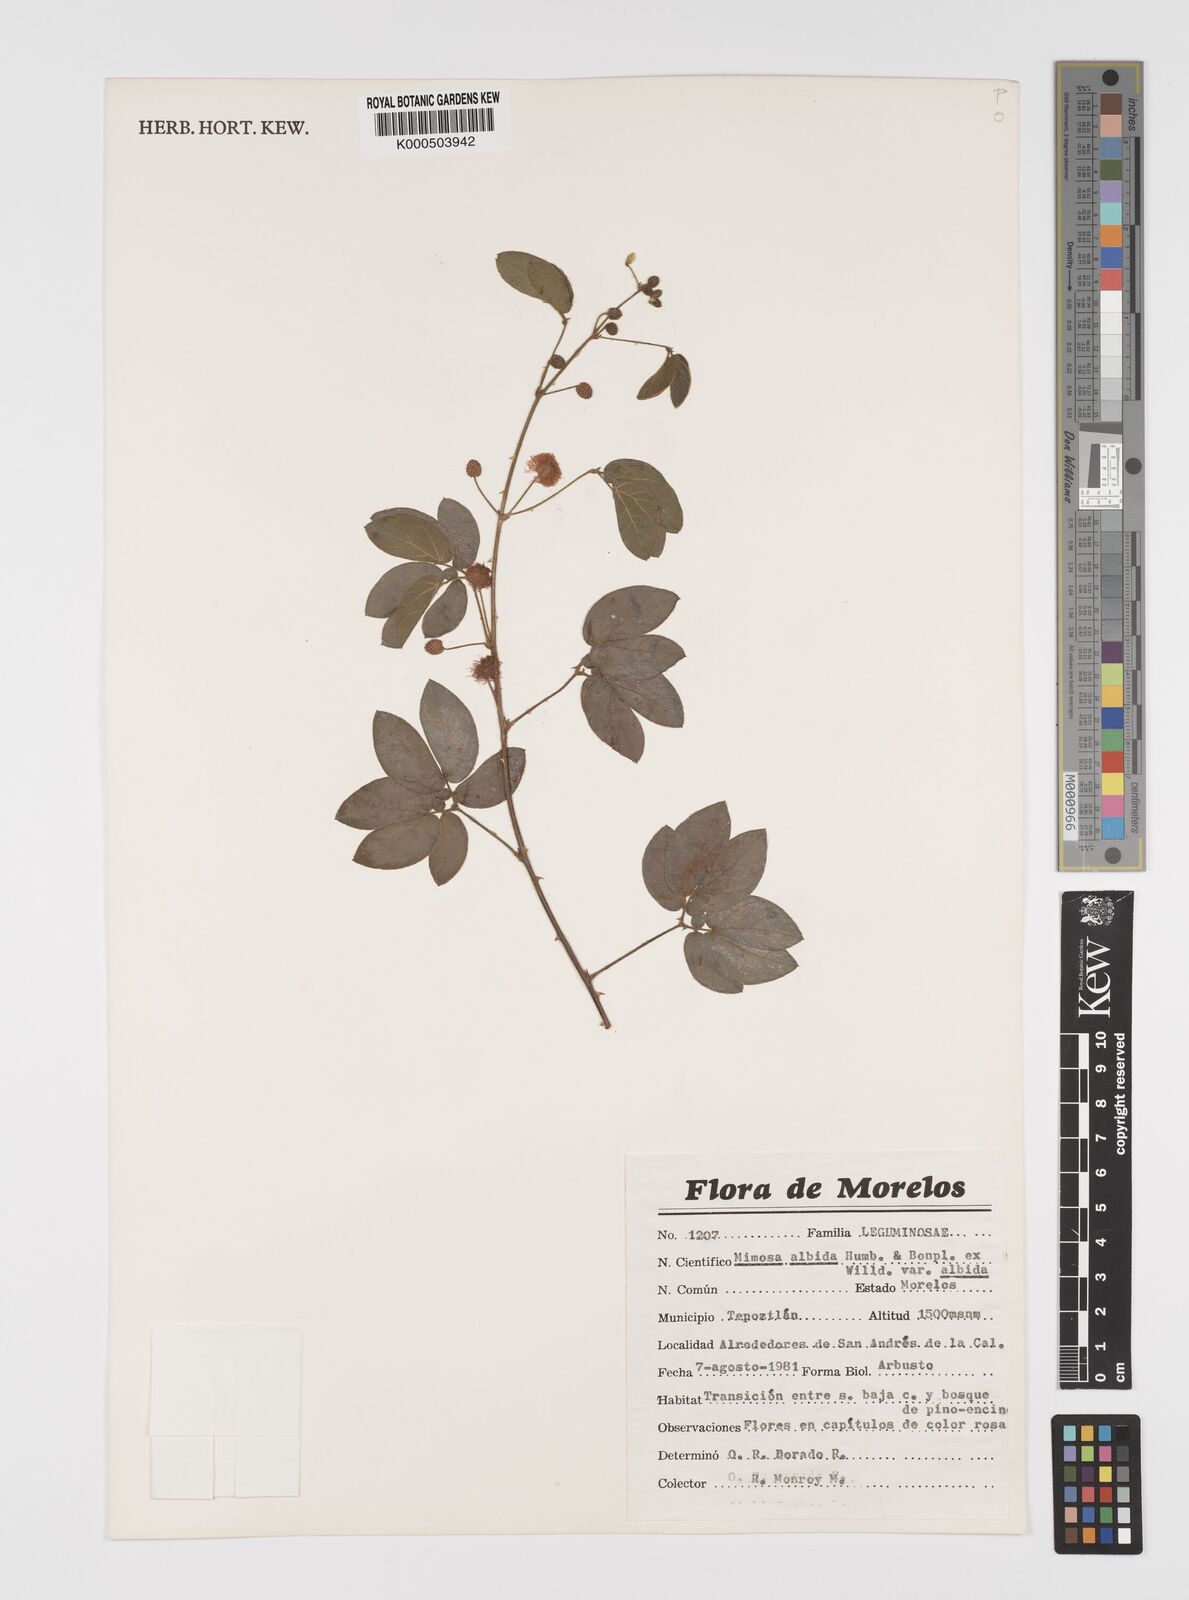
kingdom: Plantae
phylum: Tracheophyta
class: Magnoliopsida
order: Fabales
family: Fabaceae
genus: Mimosa
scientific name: Mimosa albida
